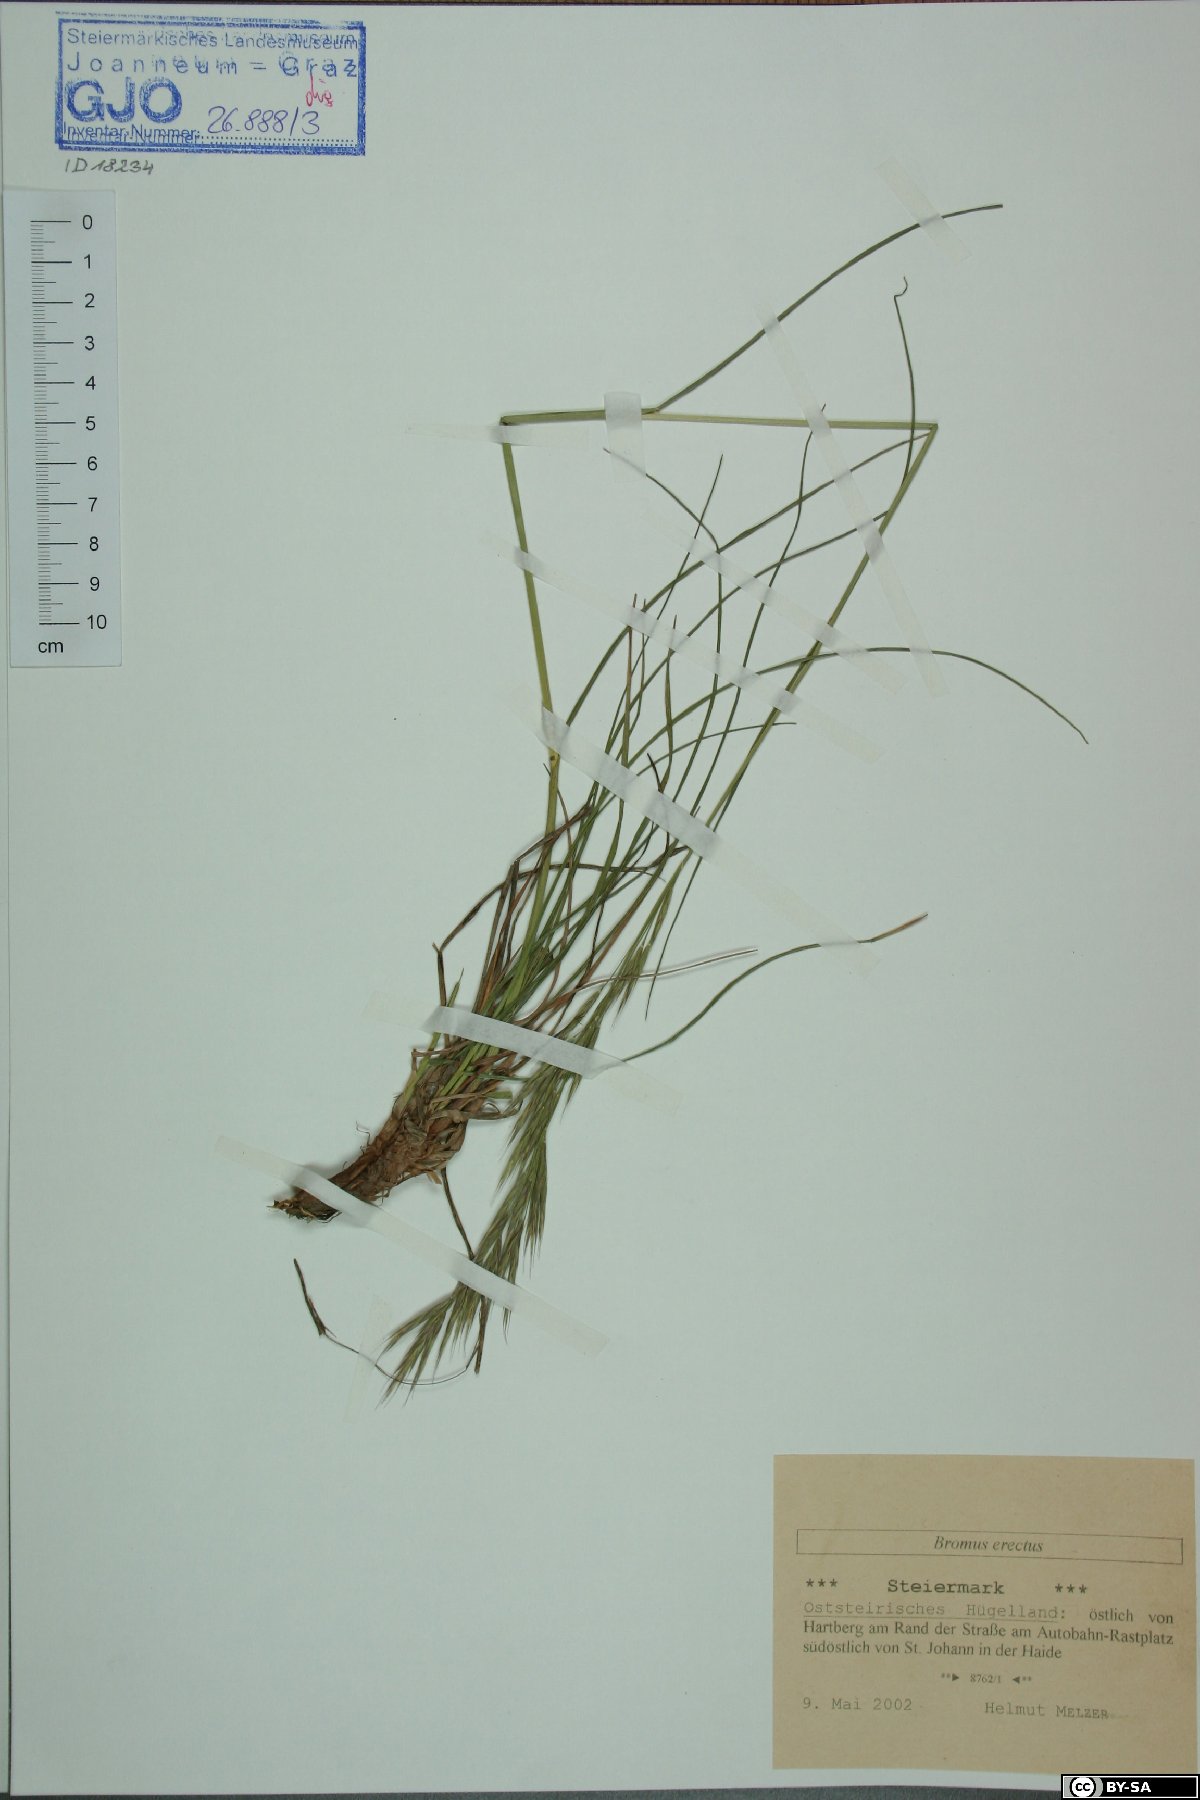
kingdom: Plantae
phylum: Tracheophyta
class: Liliopsida
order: Poales
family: Poaceae
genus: Bromus
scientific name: Bromus erectus
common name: Erect brome
